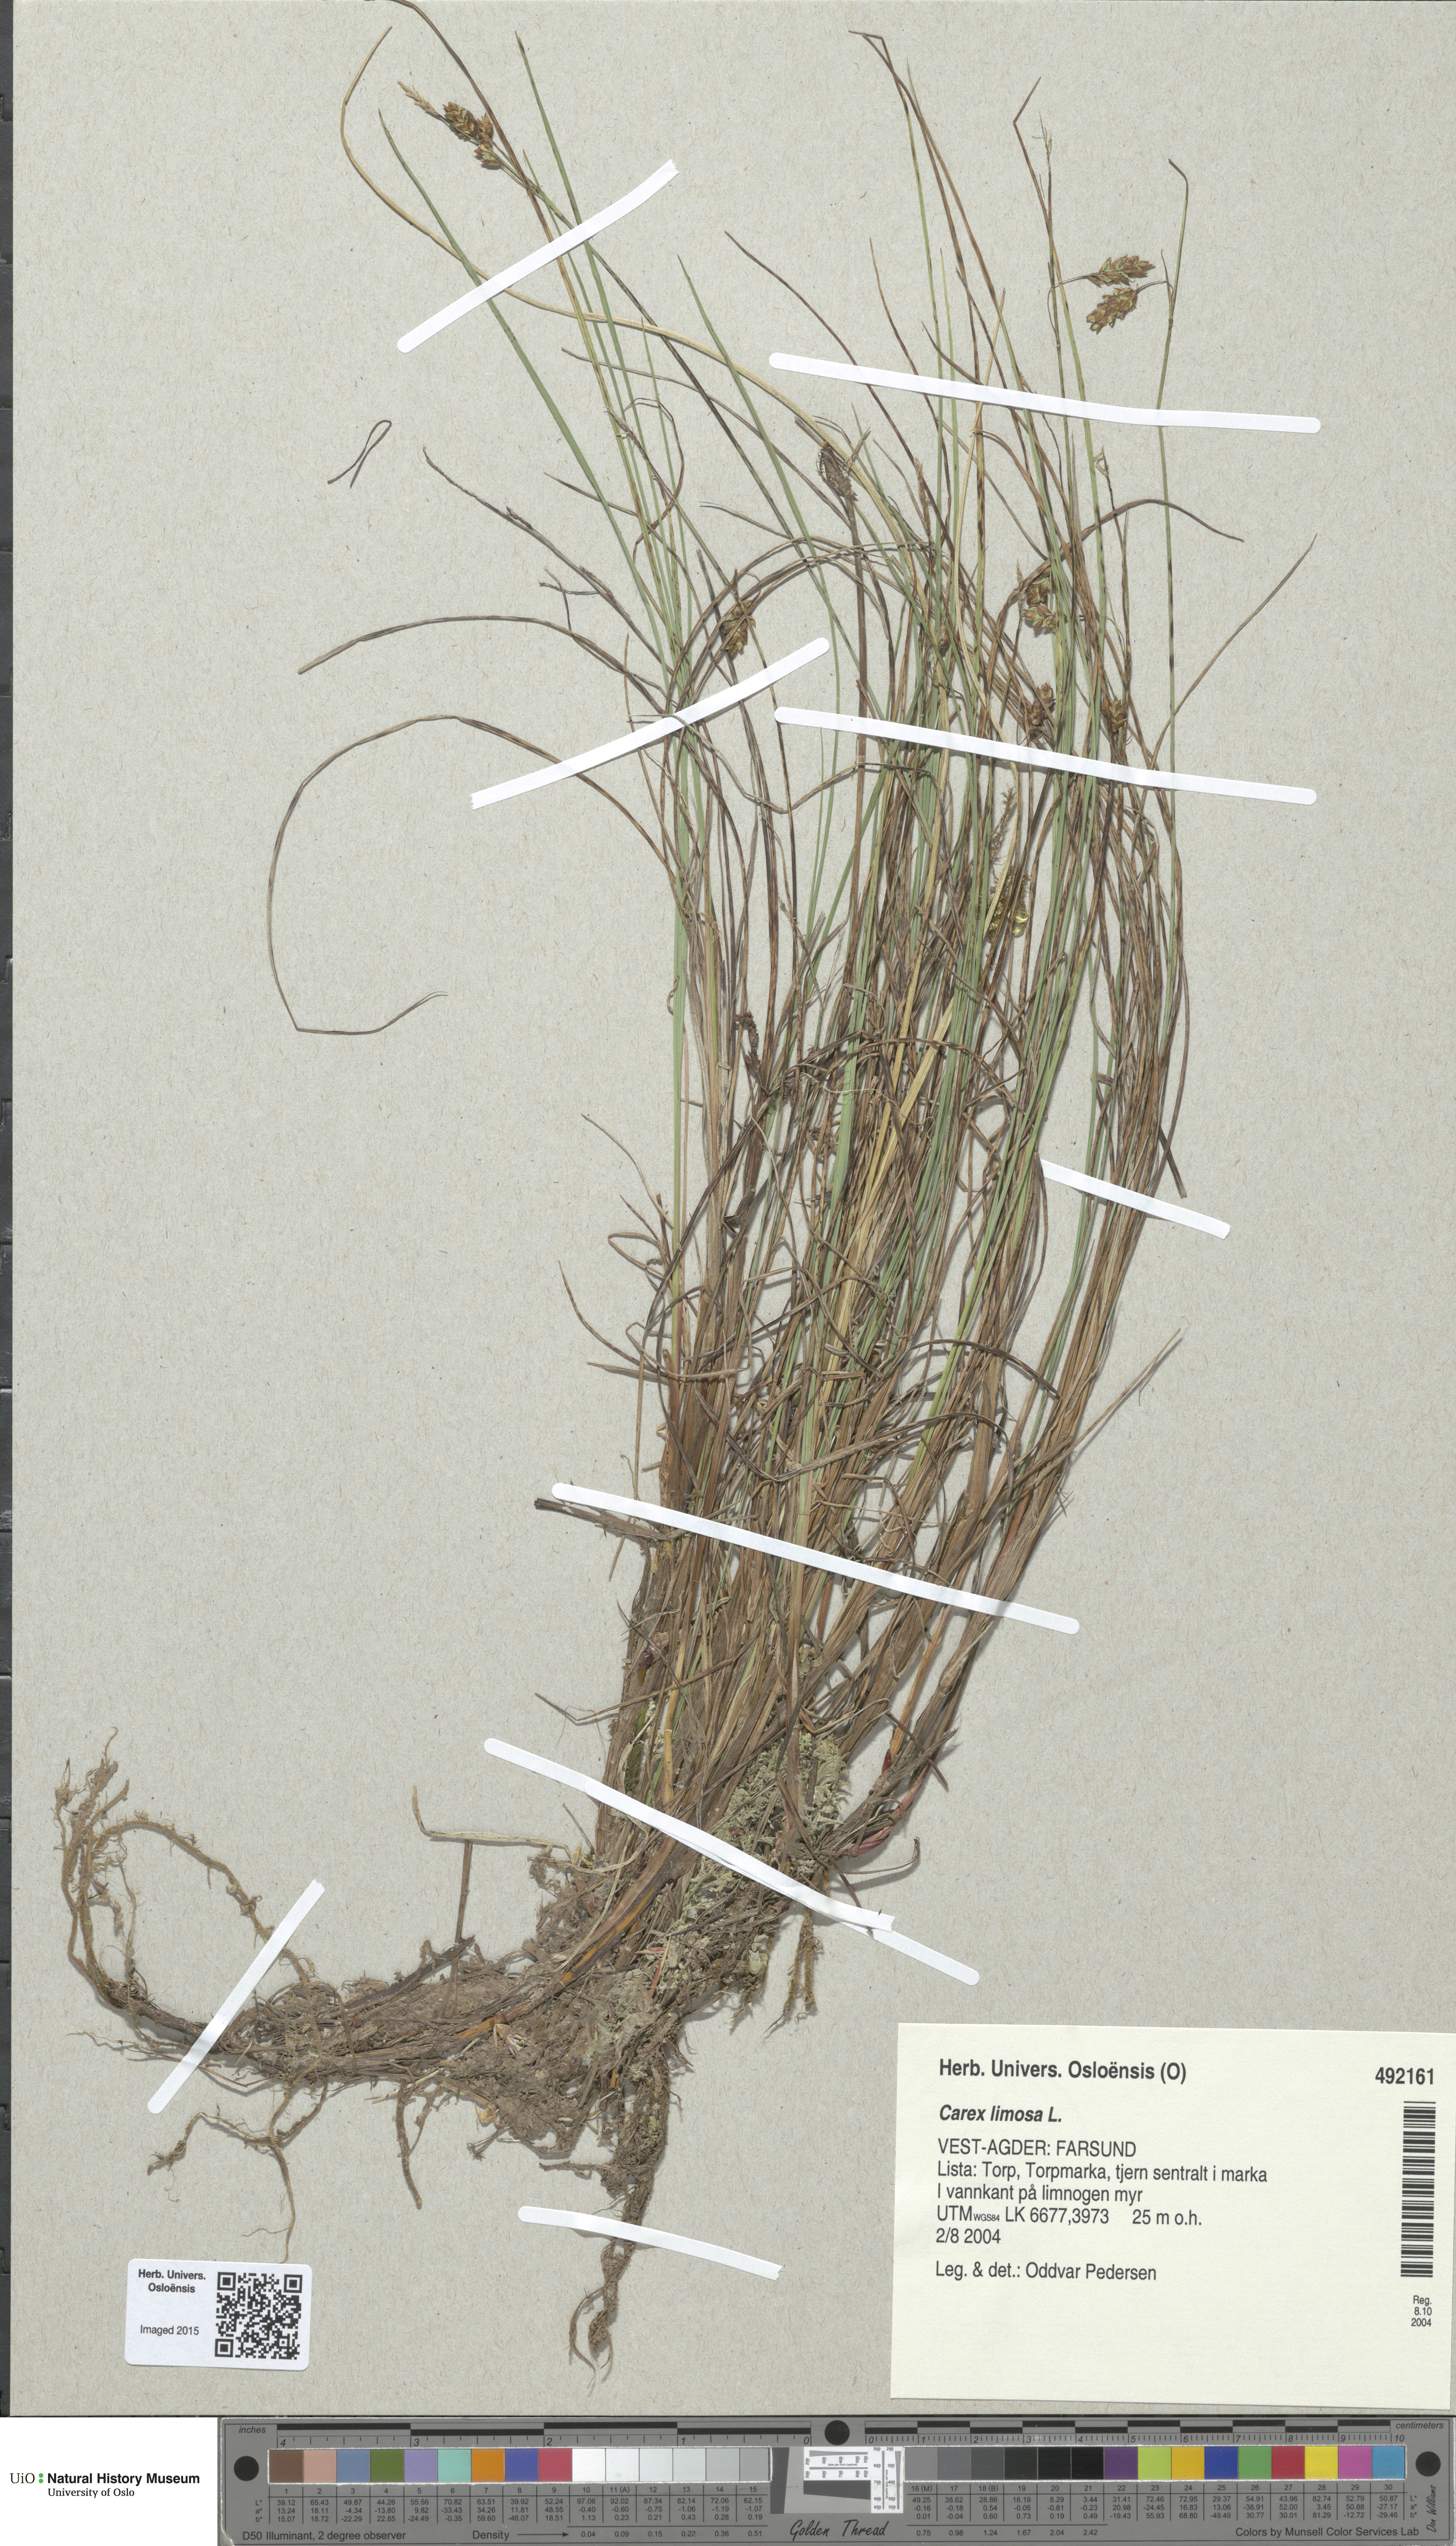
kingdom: Plantae
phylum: Tracheophyta
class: Liliopsida
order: Poales
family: Cyperaceae
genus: Carex
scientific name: Carex limosa
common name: Bog sedge
